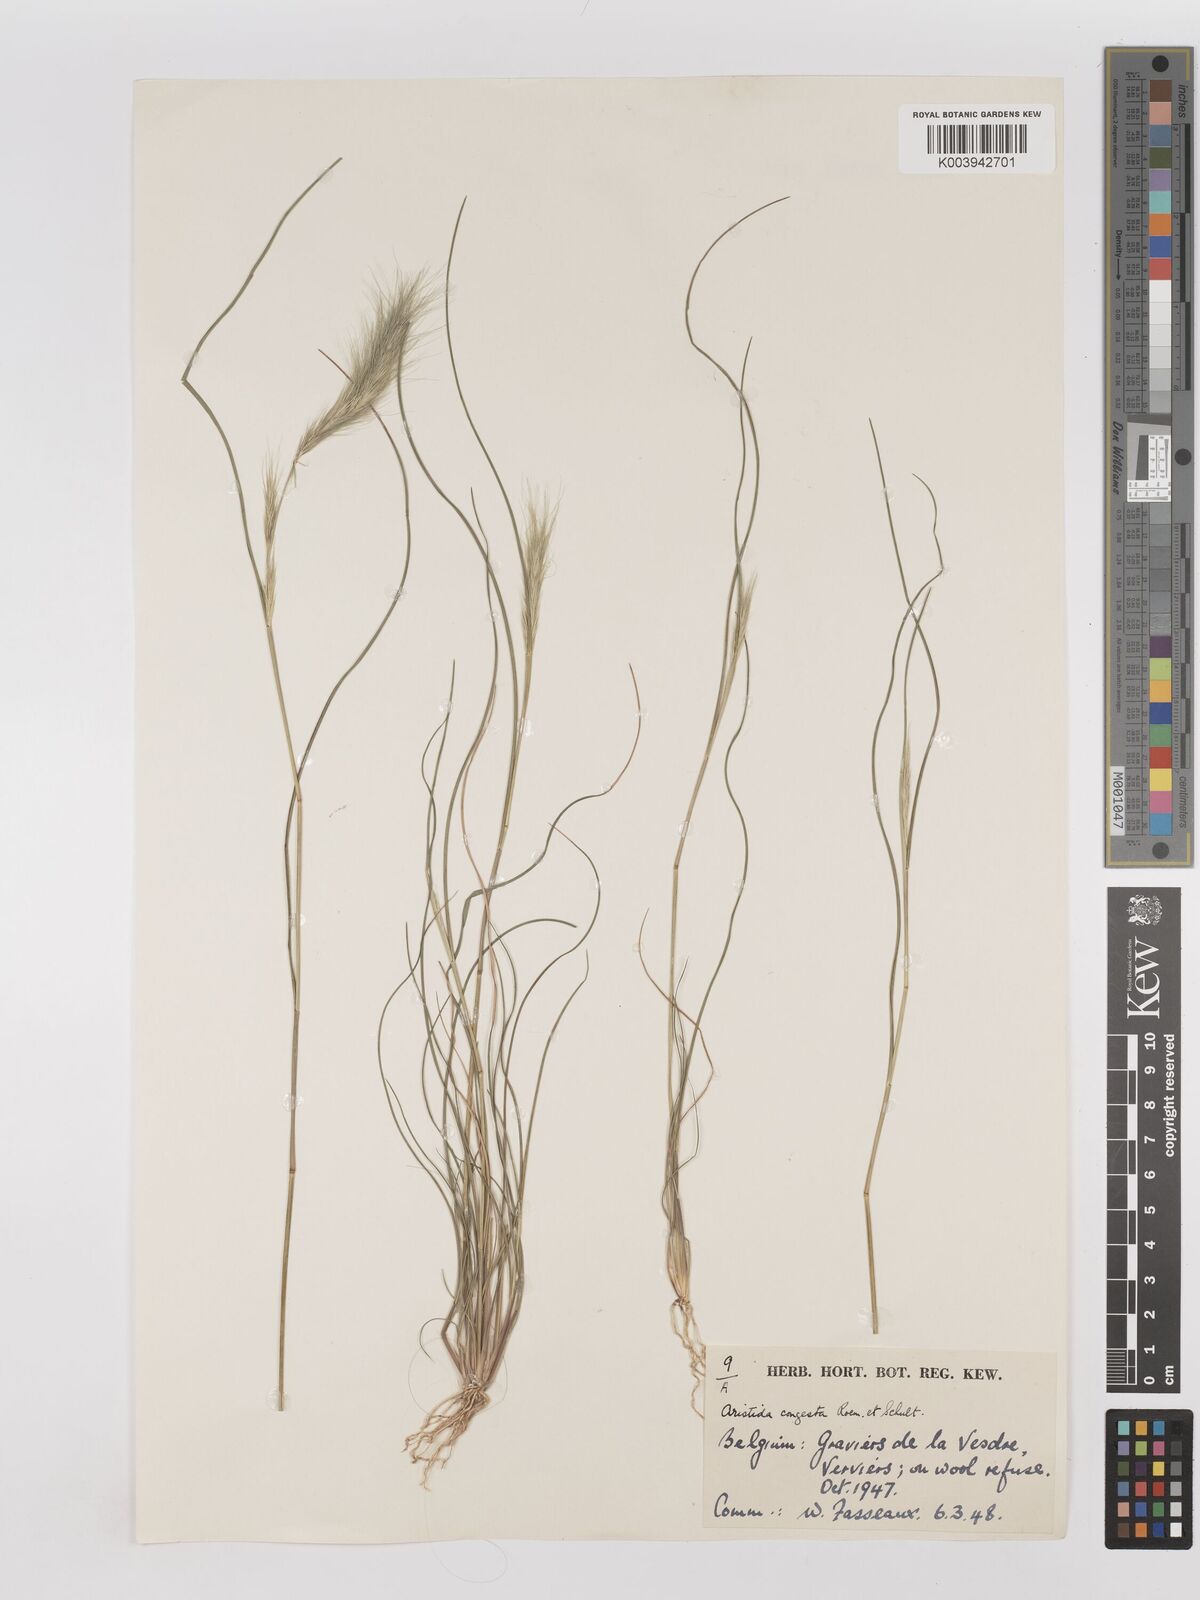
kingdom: Plantae
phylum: Tracheophyta
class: Liliopsida
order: Poales
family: Poaceae
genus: Aristida
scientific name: Aristida congesta
